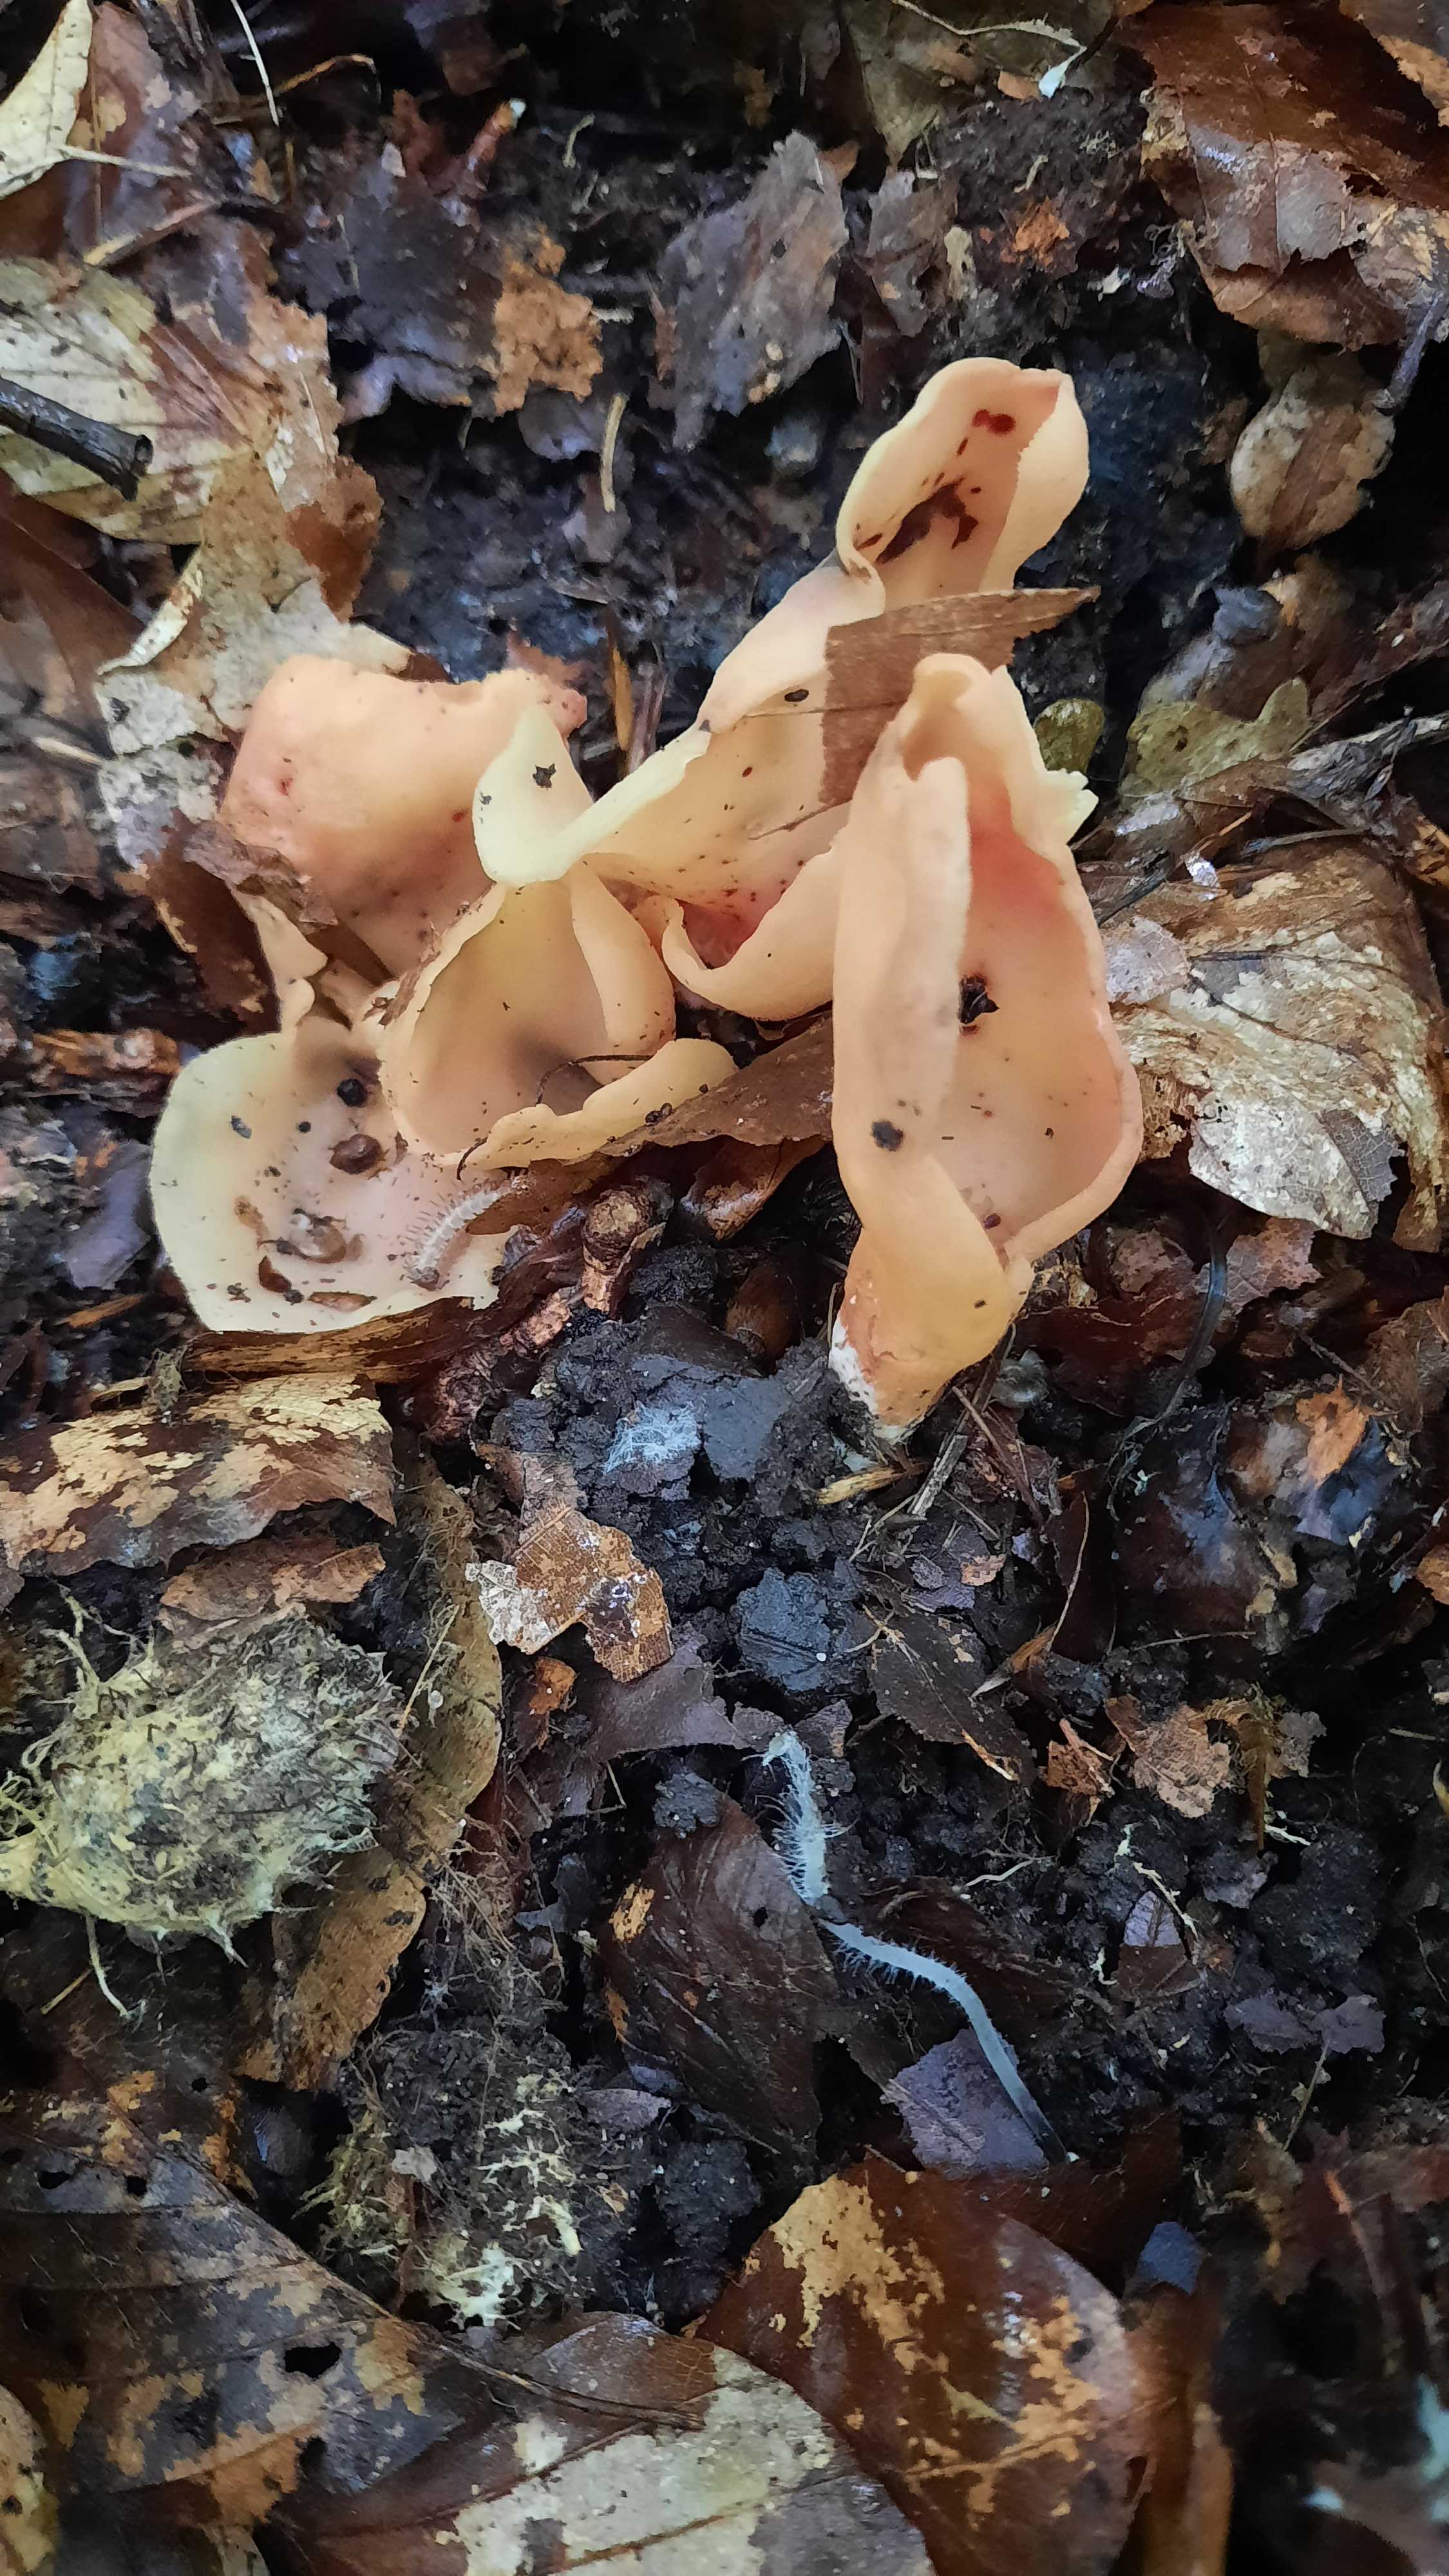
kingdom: Fungi
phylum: Ascomycota
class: Pezizomycetes
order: Pezizales
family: Otideaceae
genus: Otidea
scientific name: Otidea onotica
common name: æsel-ørebæger
